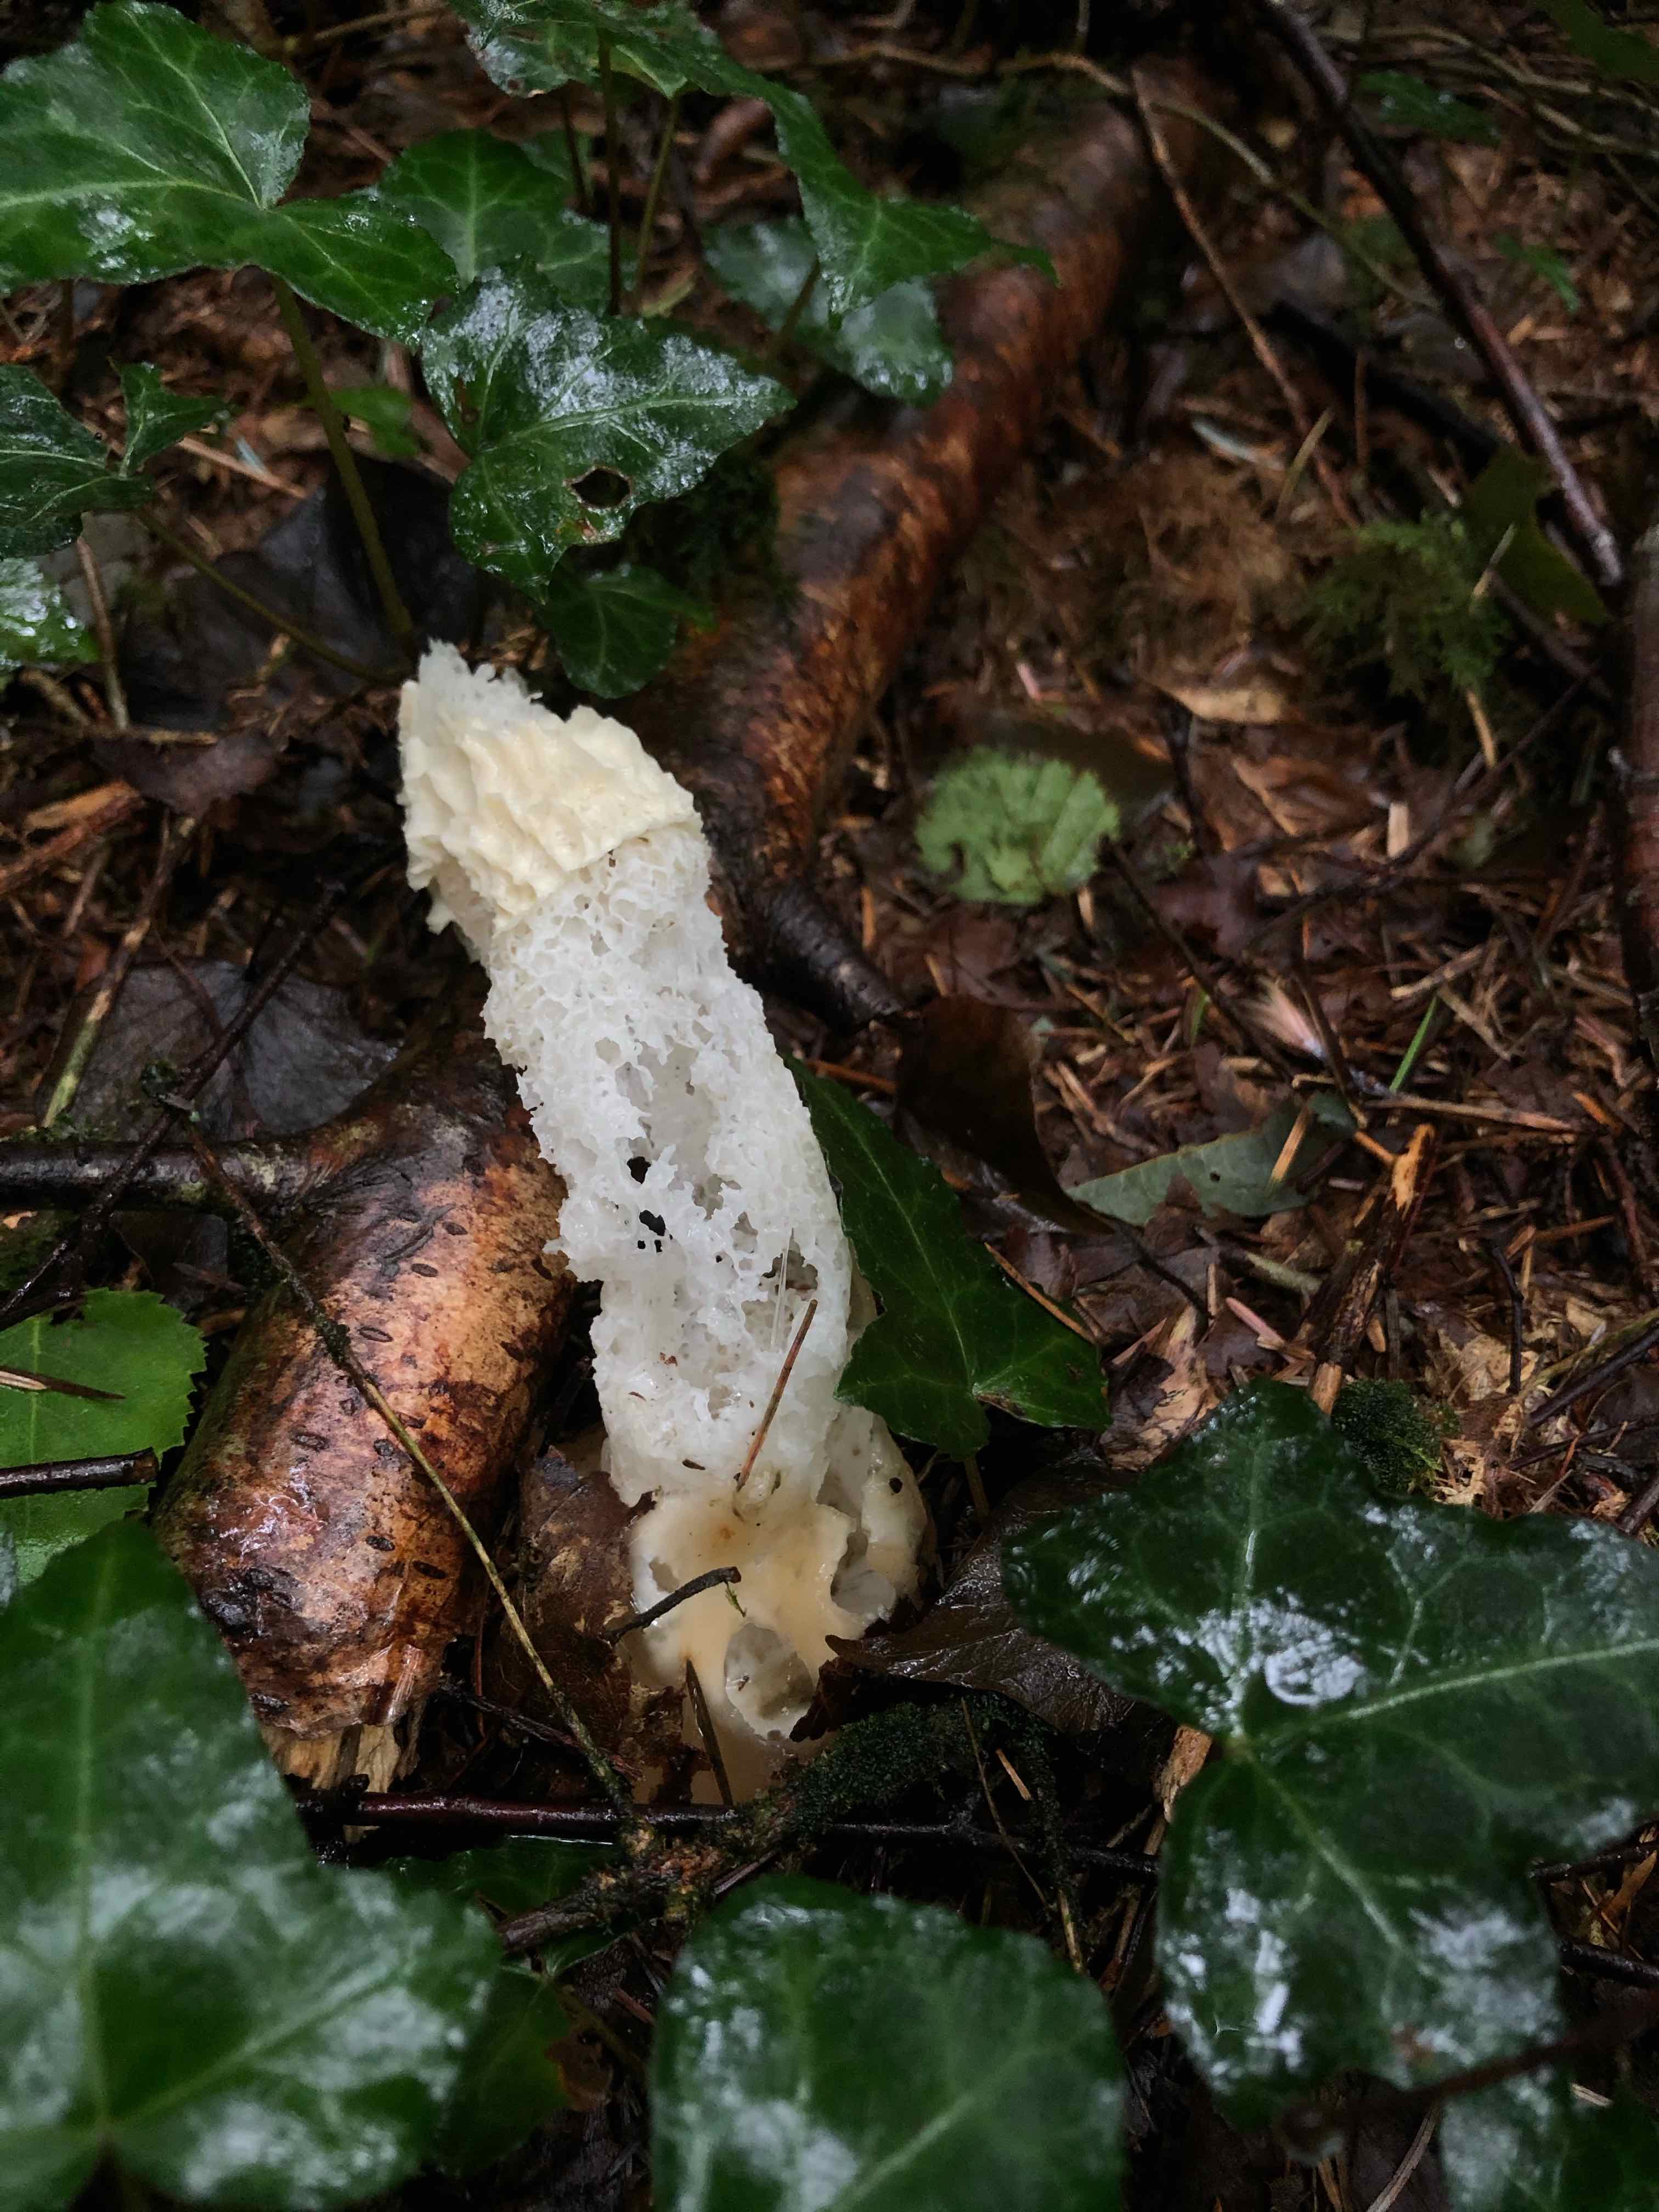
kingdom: Fungi
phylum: Basidiomycota
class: Agaricomycetes
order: Phallales
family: Phallaceae
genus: Phallus
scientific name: Phallus impudicus
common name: almindelig stinksvamp
